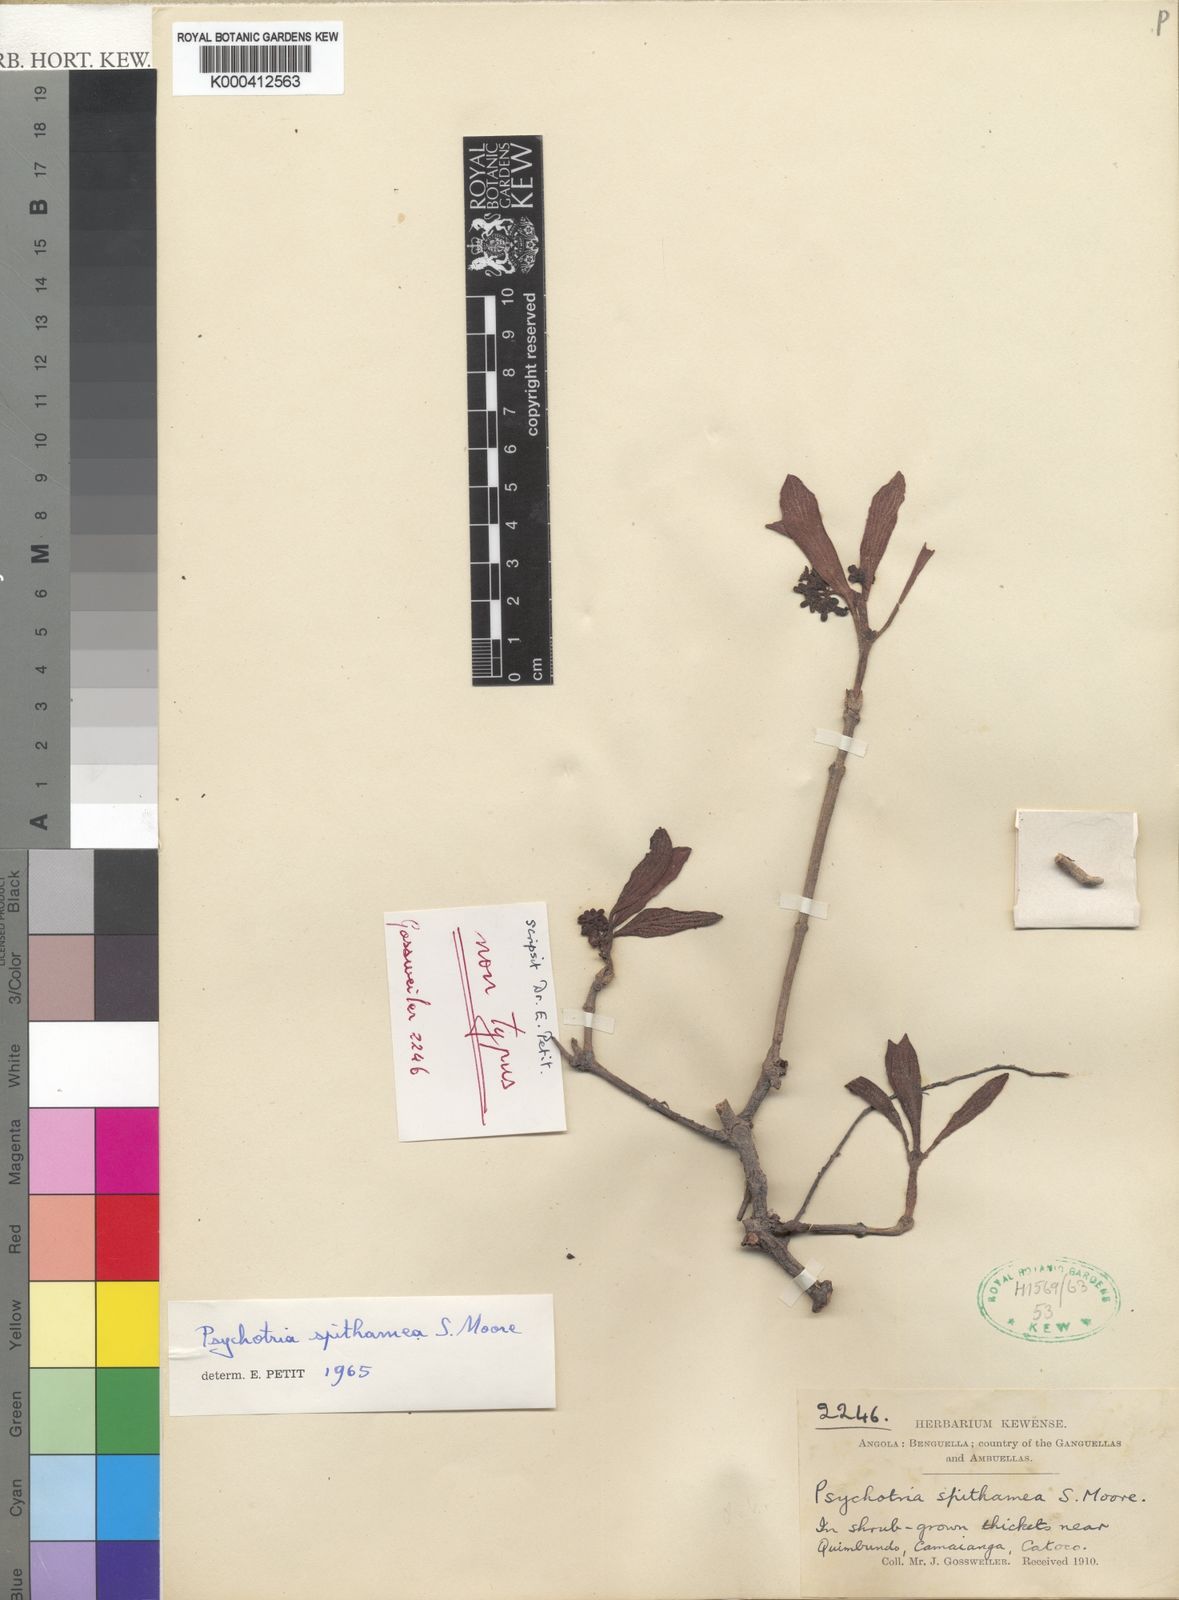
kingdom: Plantae
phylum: Tracheophyta
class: Magnoliopsida
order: Gentianales
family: Rubiaceae
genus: Psychotria
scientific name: Psychotria spithamea
